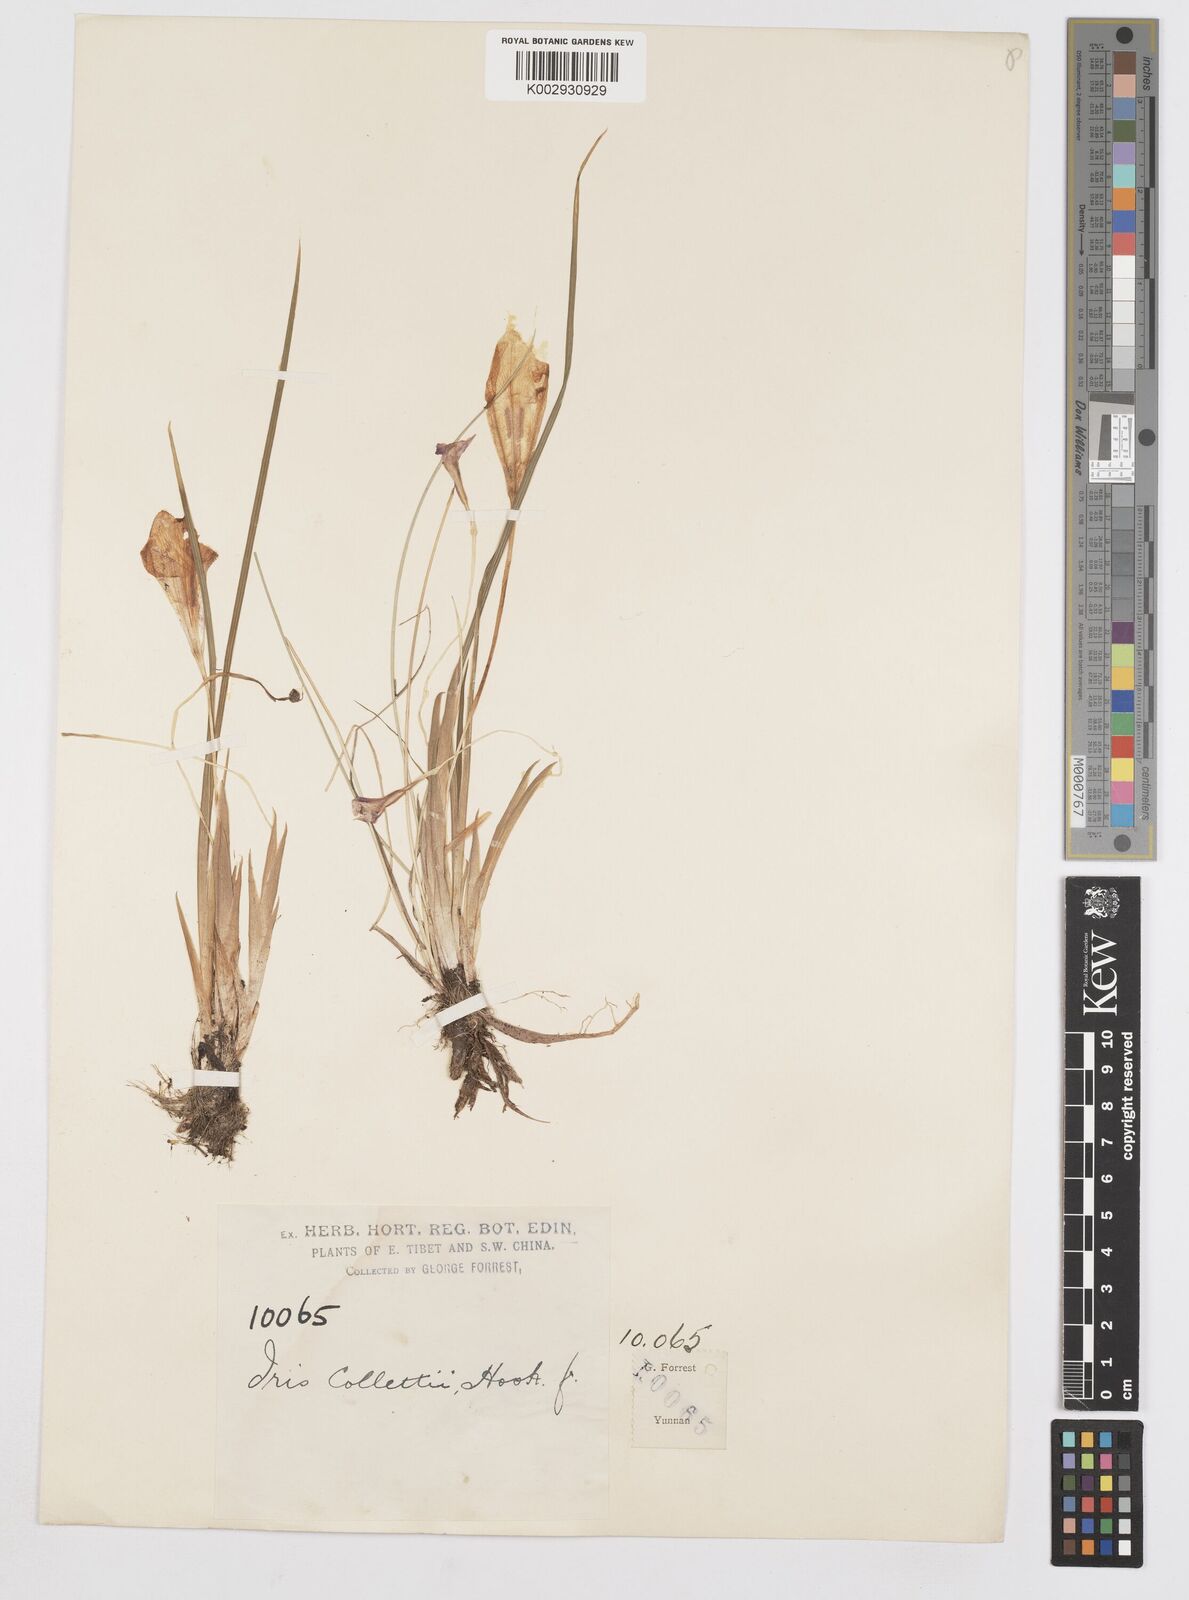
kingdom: Plantae
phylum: Tracheophyta
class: Liliopsida
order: Asparagales
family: Iridaceae
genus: Iris
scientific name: Iris collettii
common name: Plateau iris
